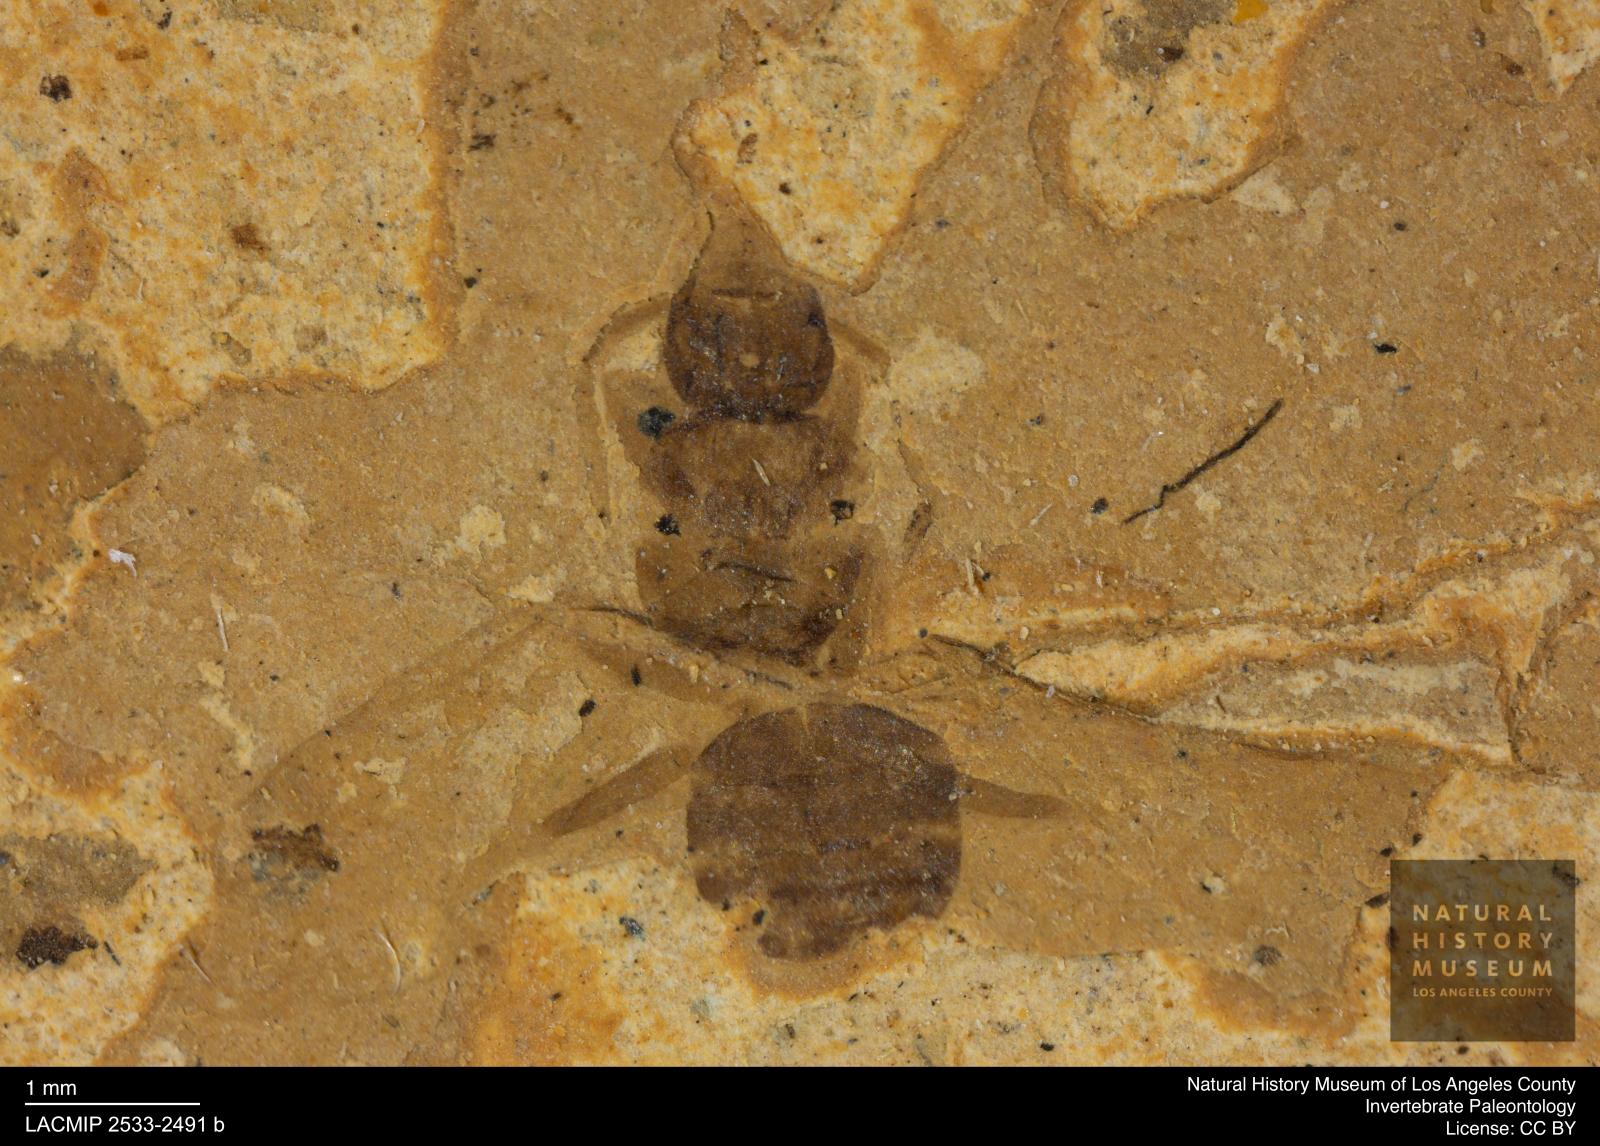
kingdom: Animalia
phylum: Arthropoda
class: Insecta
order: Hymenoptera
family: Formicidae
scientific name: Formicidae
